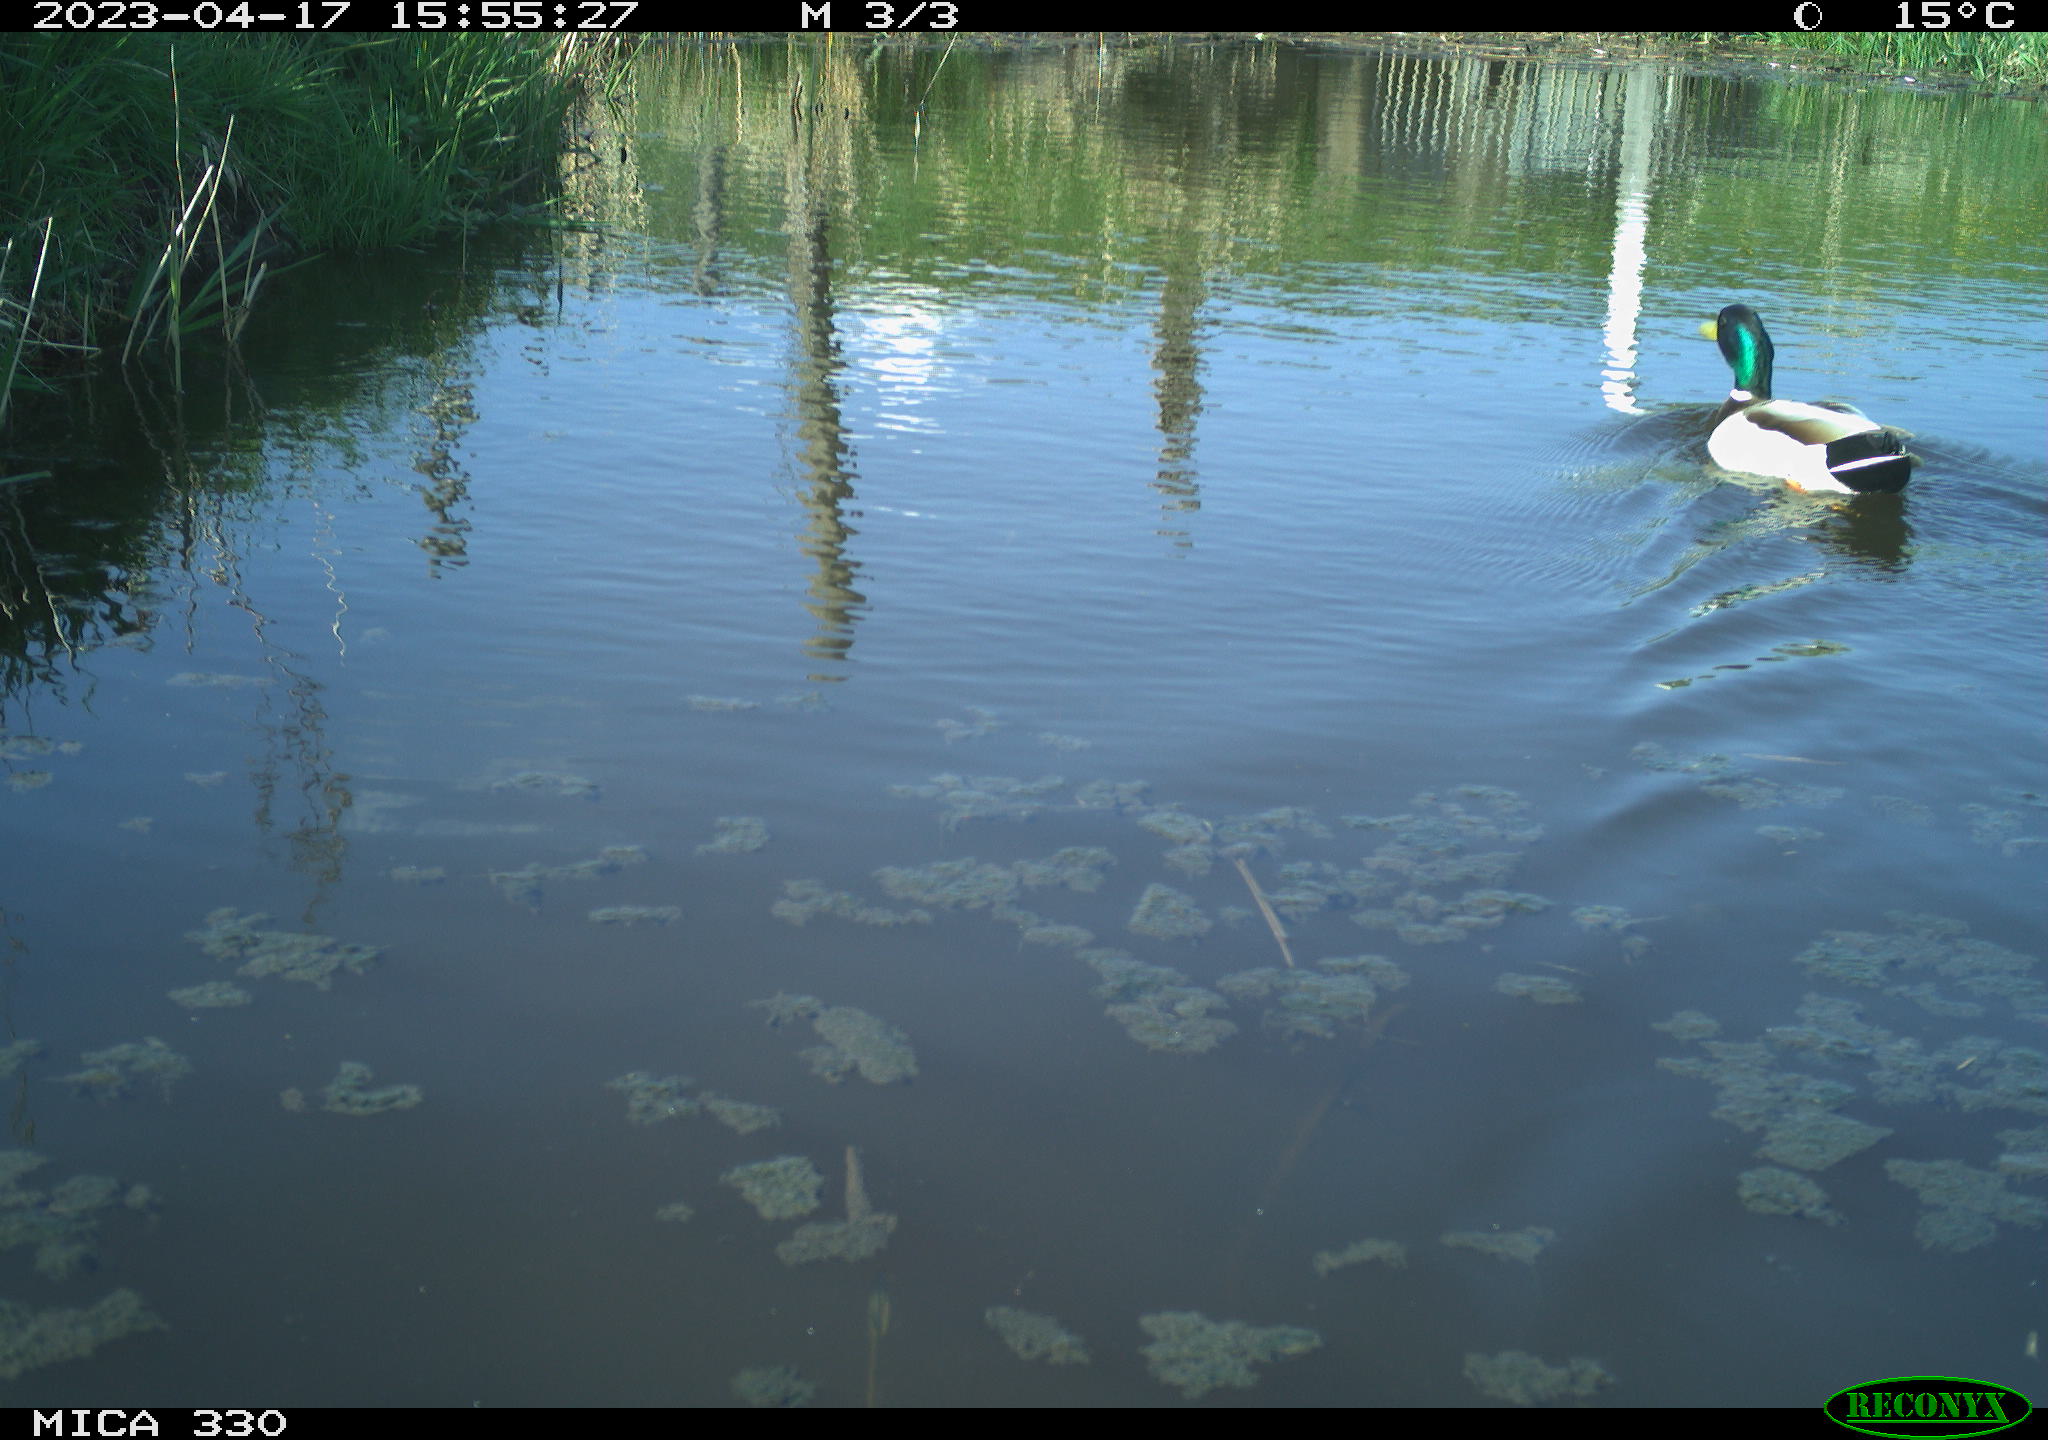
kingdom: Animalia
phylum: Chordata
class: Aves
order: Anseriformes
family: Anatidae
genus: Anas
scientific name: Anas
